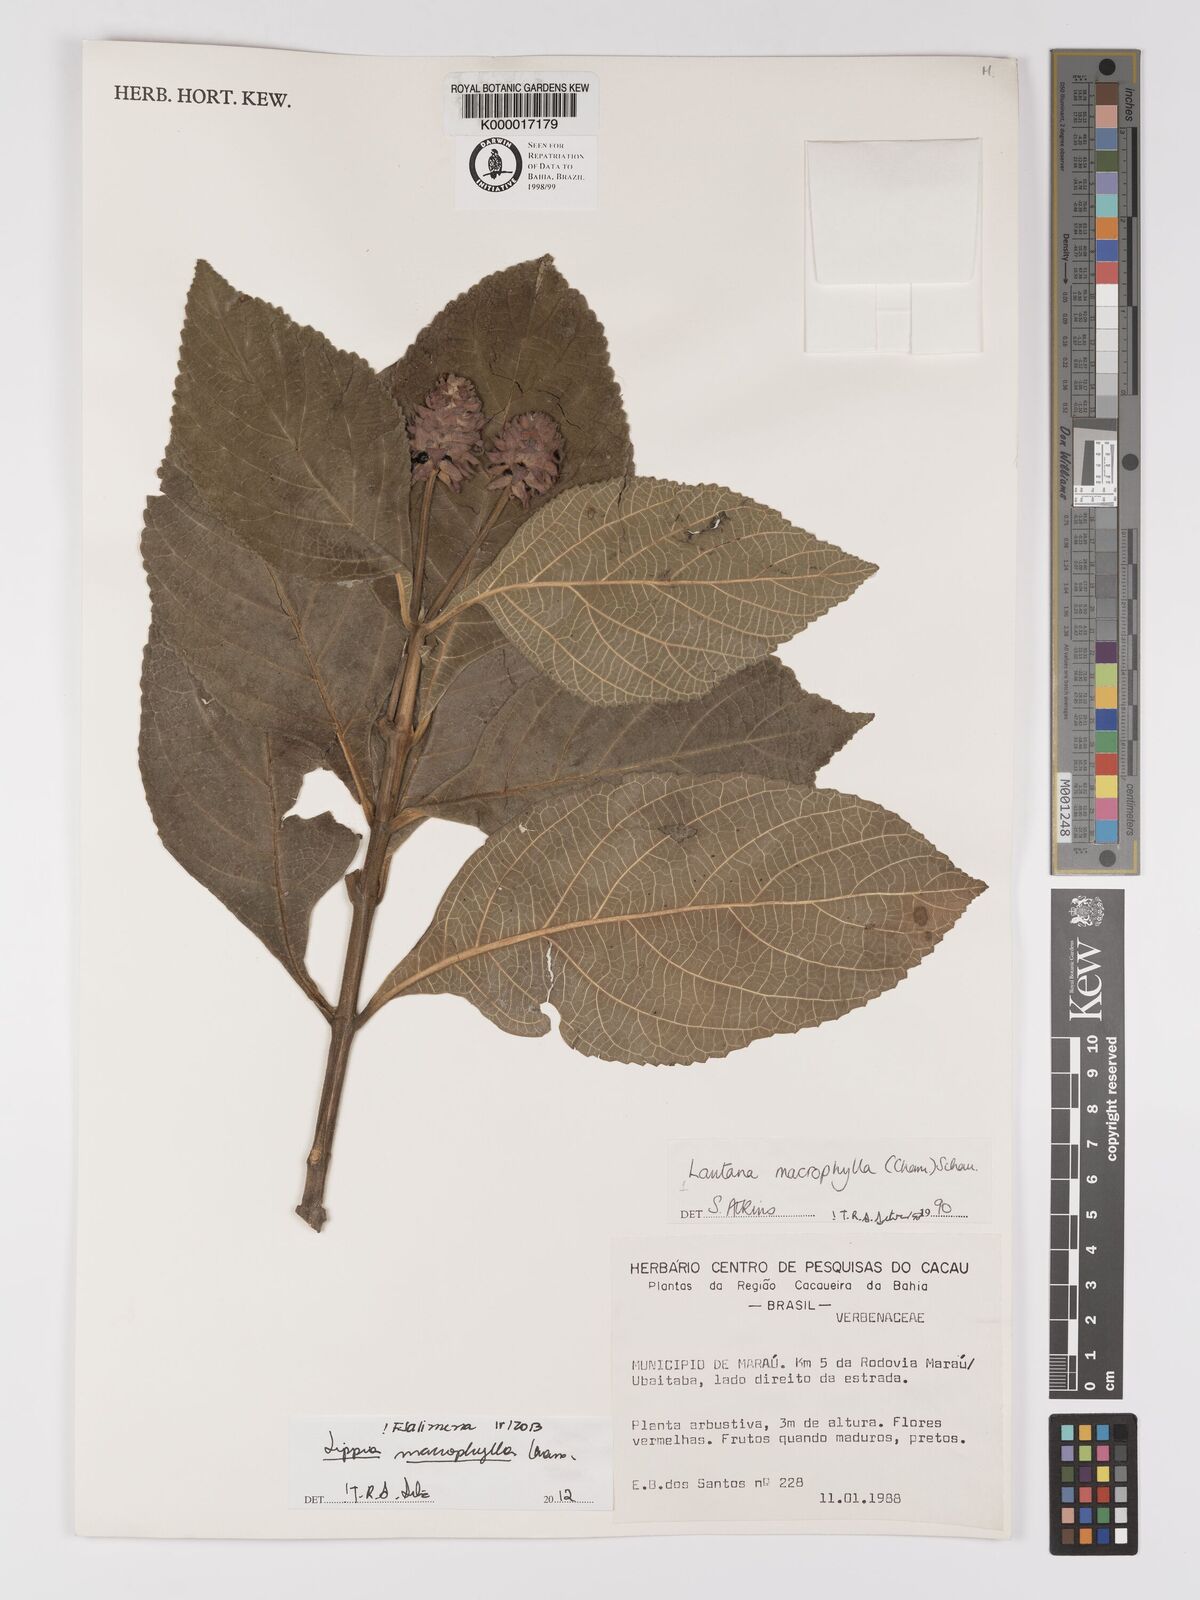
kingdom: Plantae
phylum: Tracheophyta
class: Magnoliopsida
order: Lamiales
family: Verbenaceae
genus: Lippia
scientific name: Lippia macrophylla
